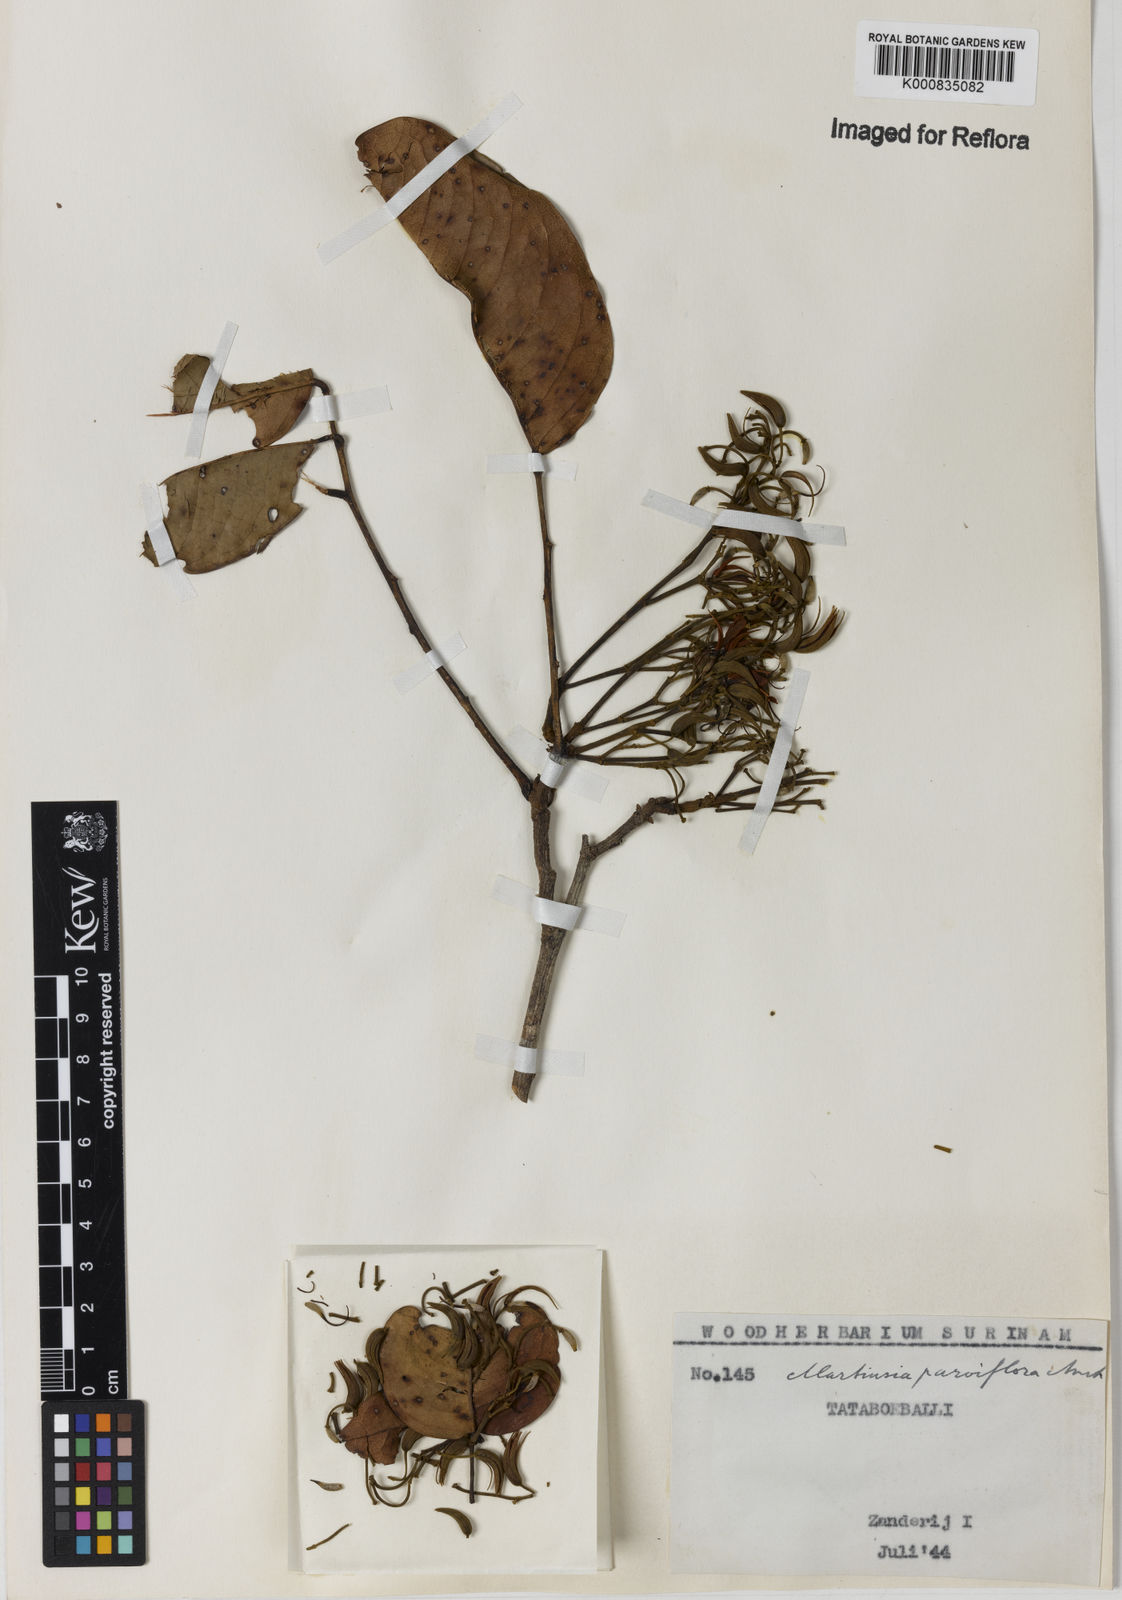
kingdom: Plantae
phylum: Tracheophyta
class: Magnoliopsida
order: Fabales
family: Fabaceae
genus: Clitoria
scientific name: Clitoria
